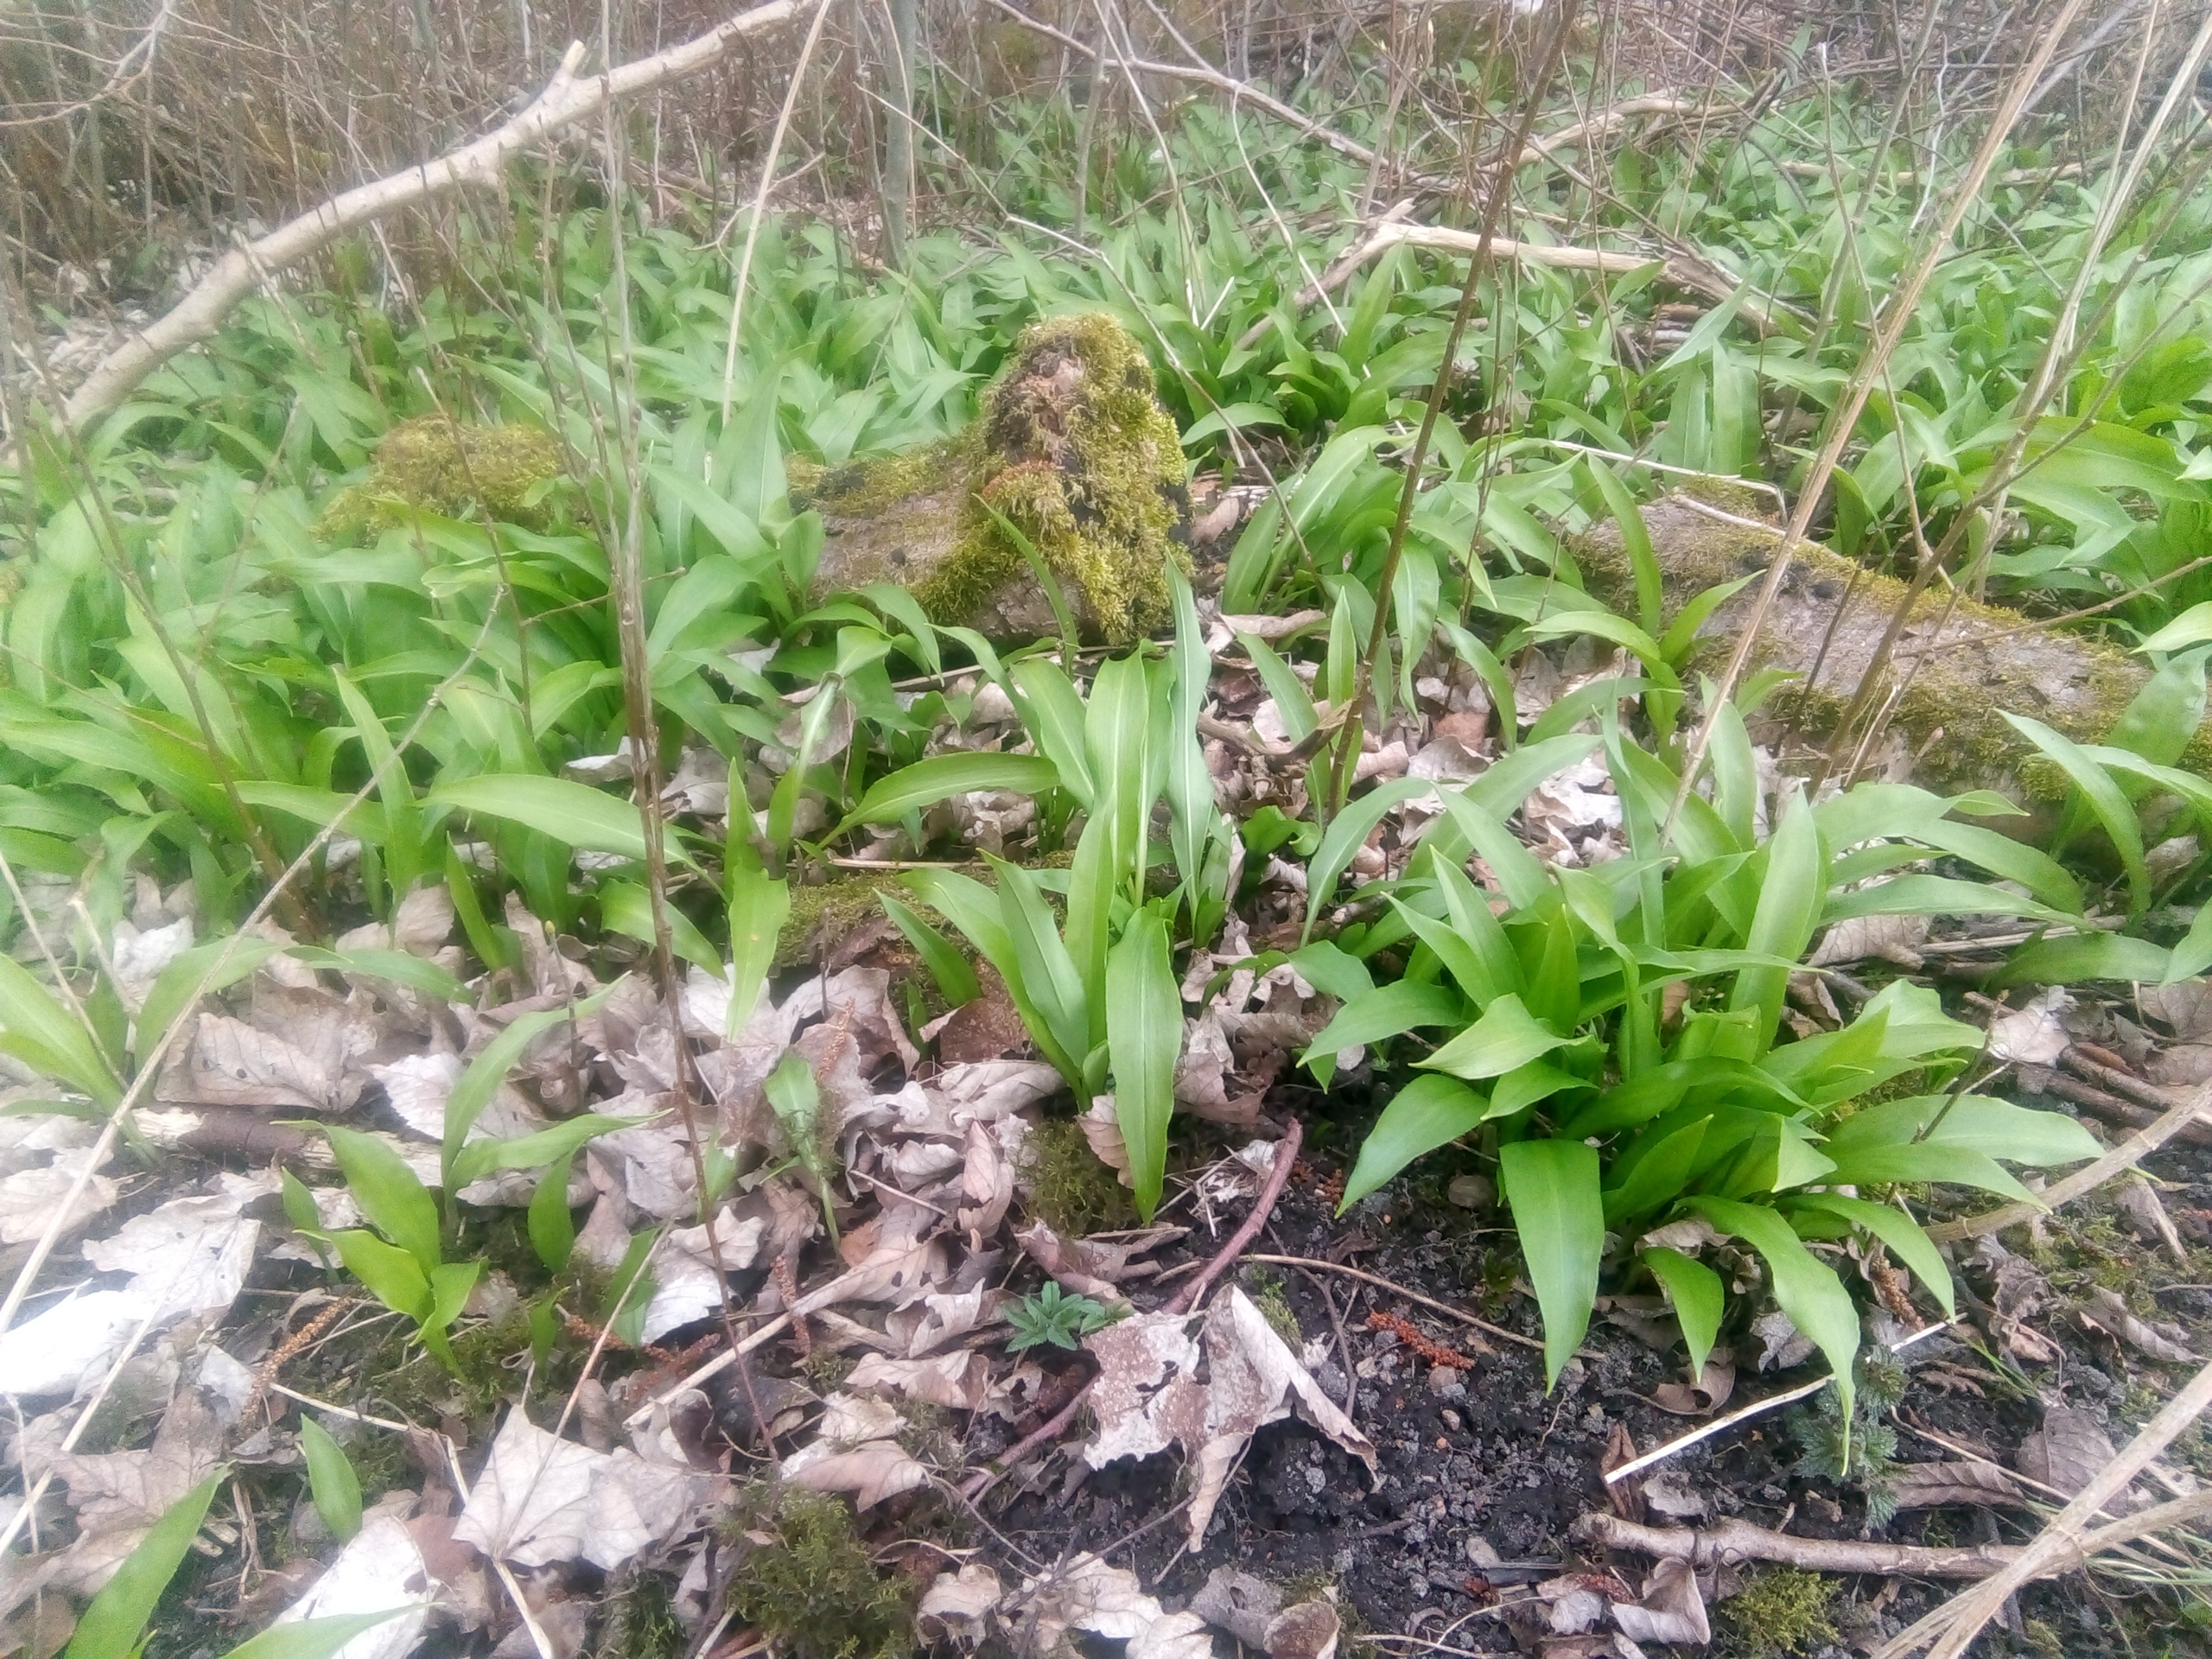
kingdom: Plantae
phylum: Tracheophyta
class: Liliopsida
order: Asparagales
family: Amaryllidaceae
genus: Allium
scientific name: Allium ursinum
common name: Rams-løg
